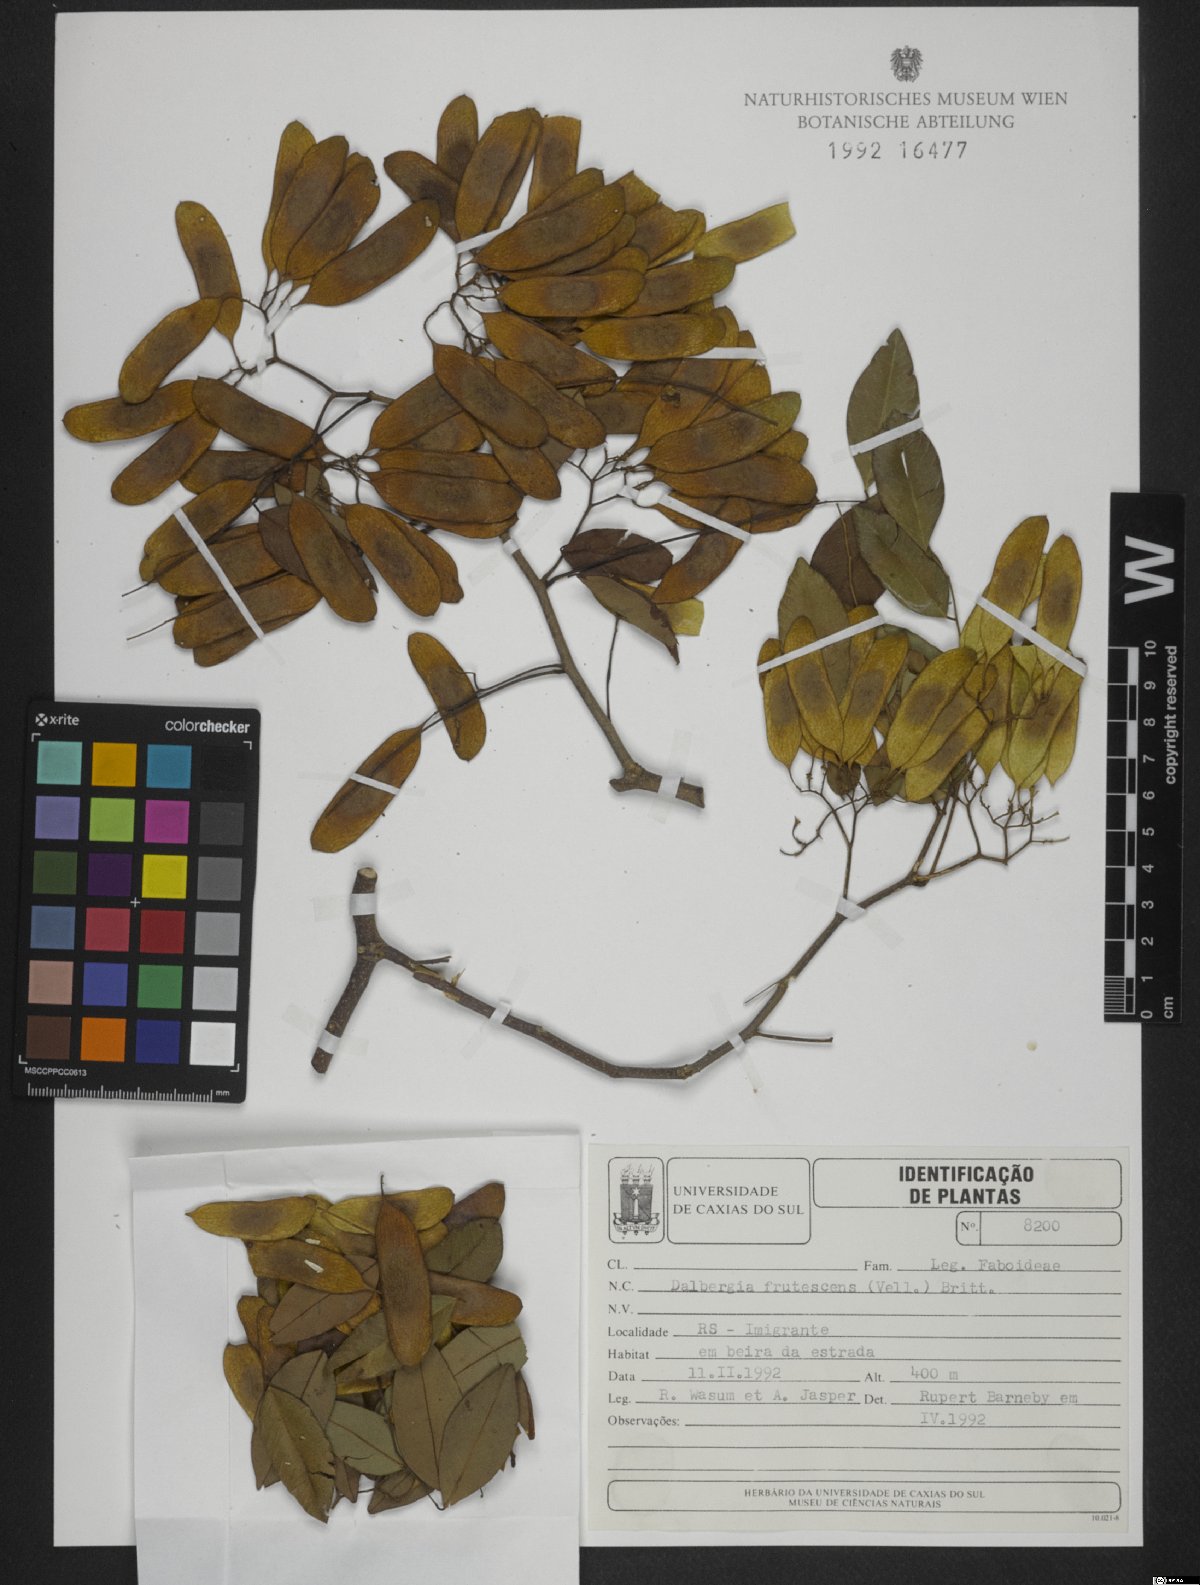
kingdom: Plantae
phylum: Tracheophyta
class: Magnoliopsida
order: Fabales
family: Fabaceae
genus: Dalbergia
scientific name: Dalbergia frutescens
